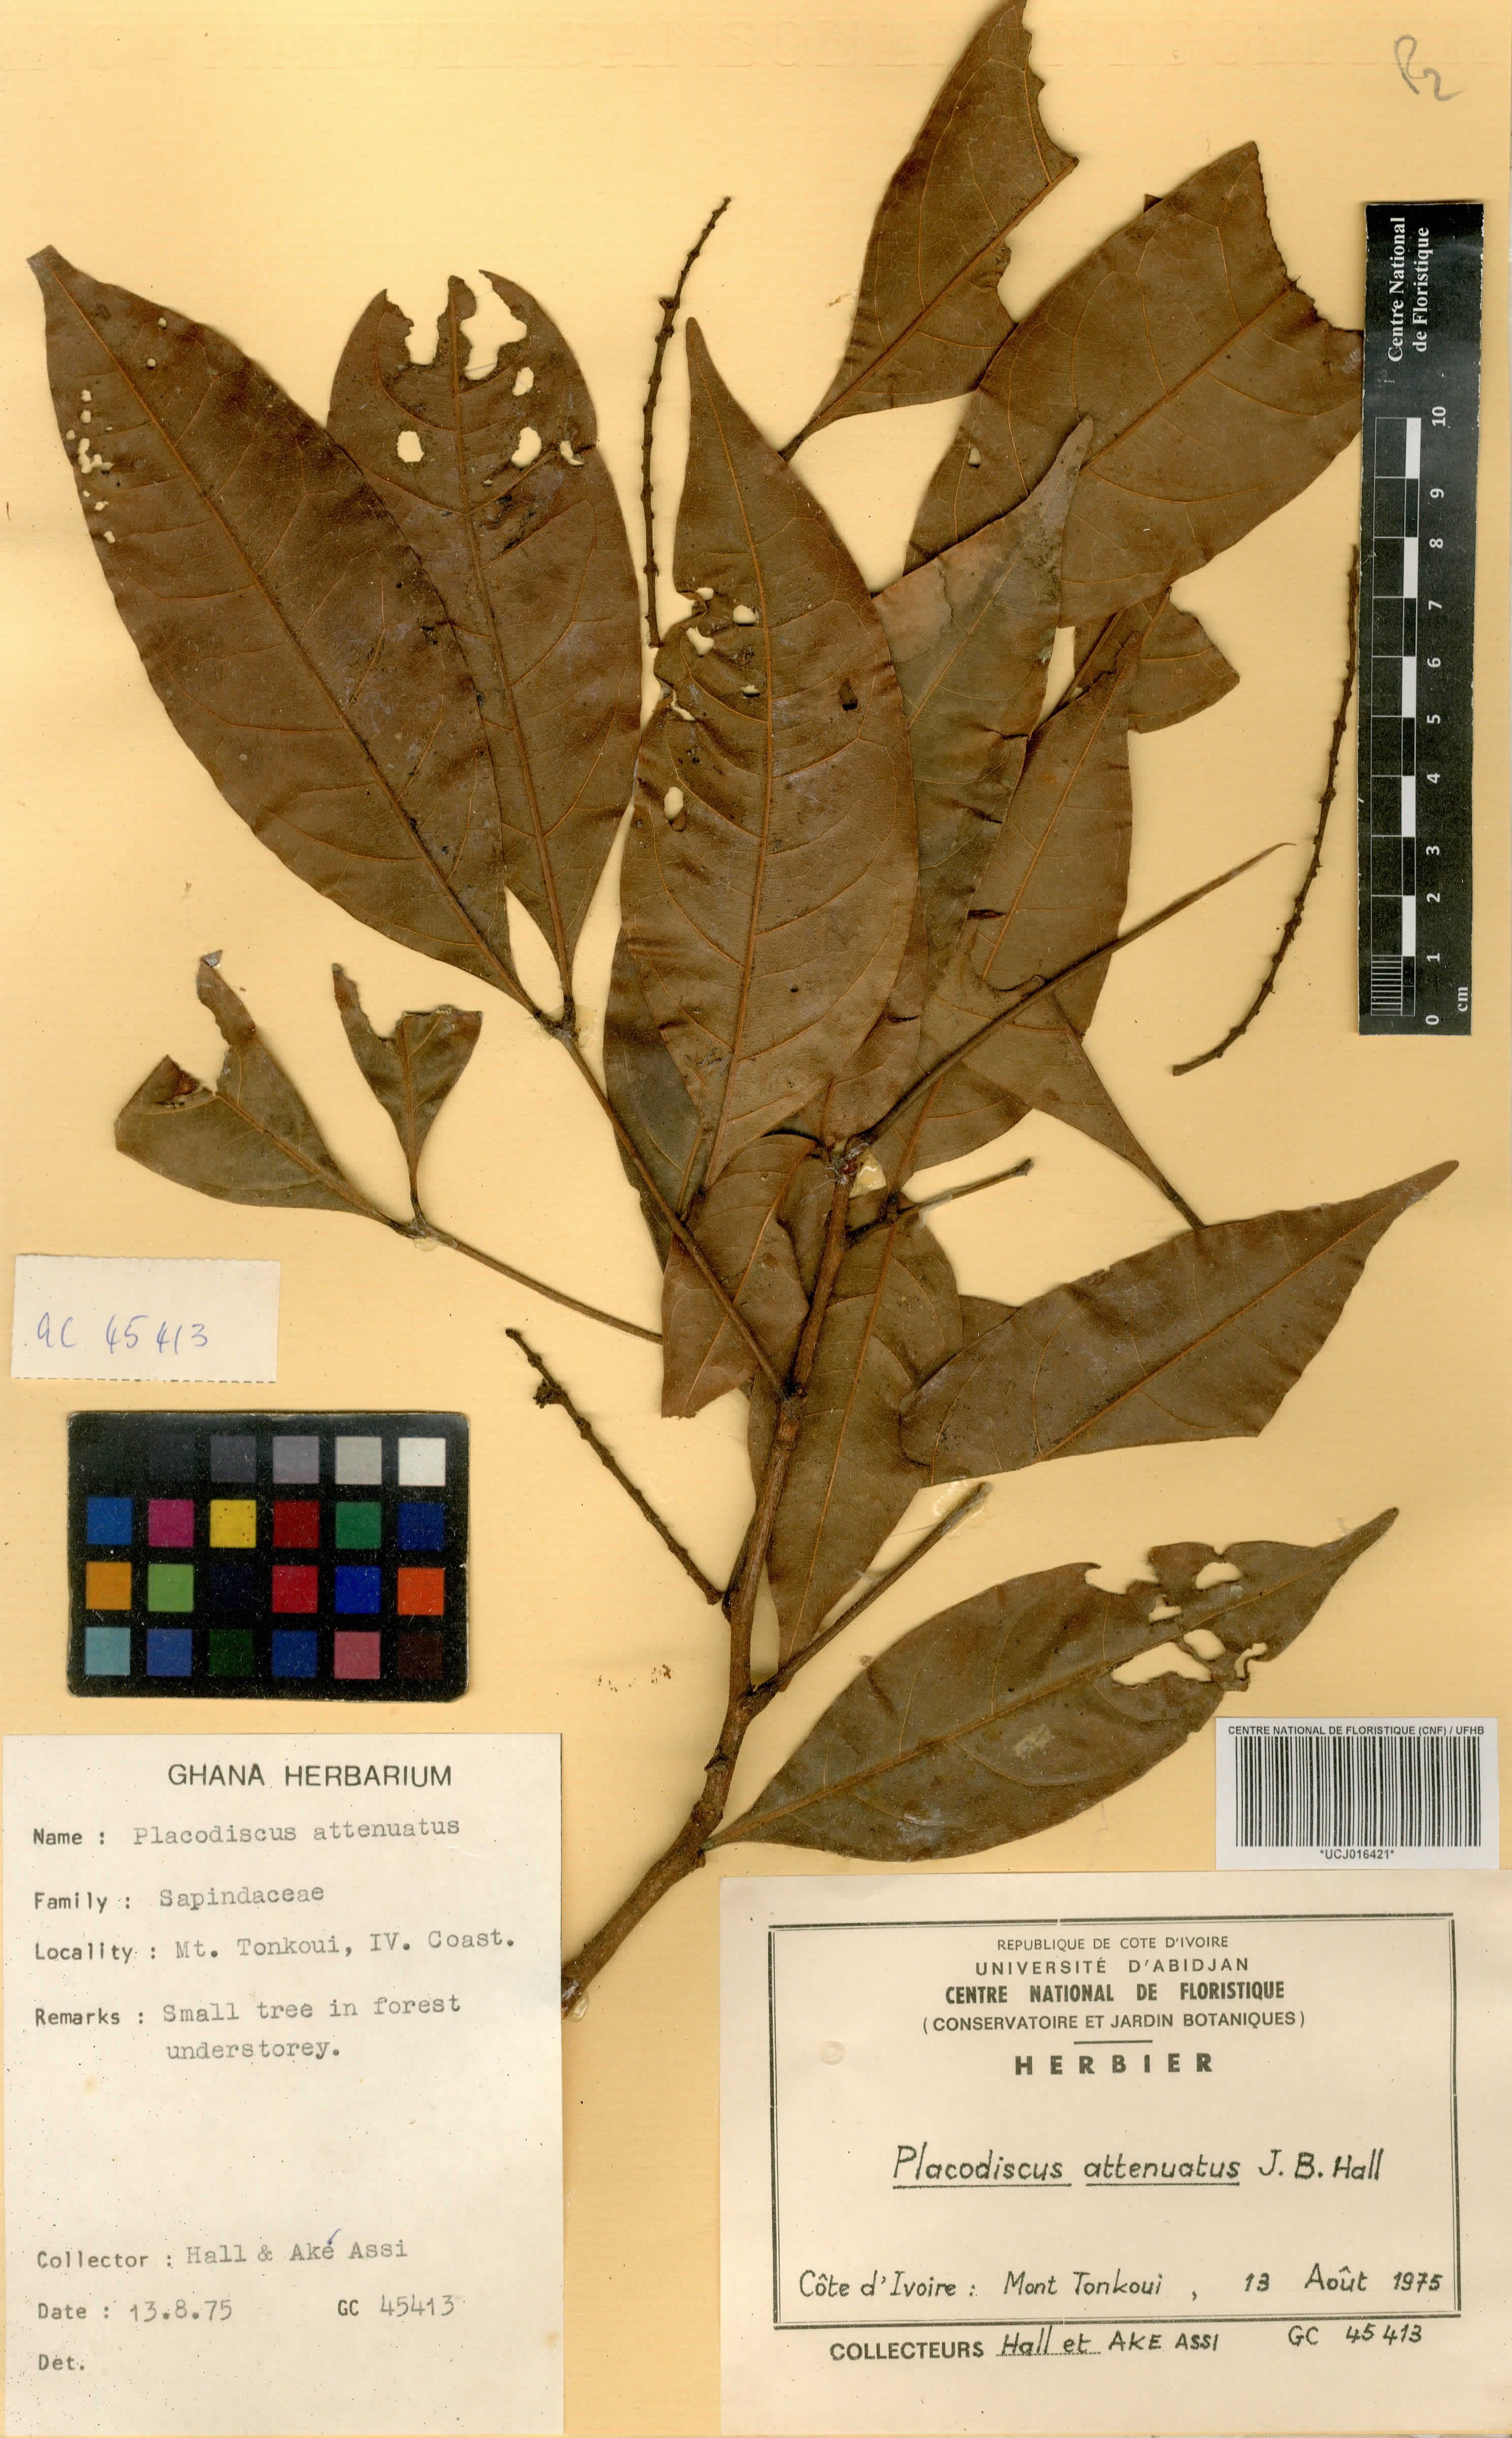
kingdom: Plantae
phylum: Tracheophyta
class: Magnoliopsida
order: Sapindales
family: Sapindaceae
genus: Placodiscus
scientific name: Placodiscus attenuatus
